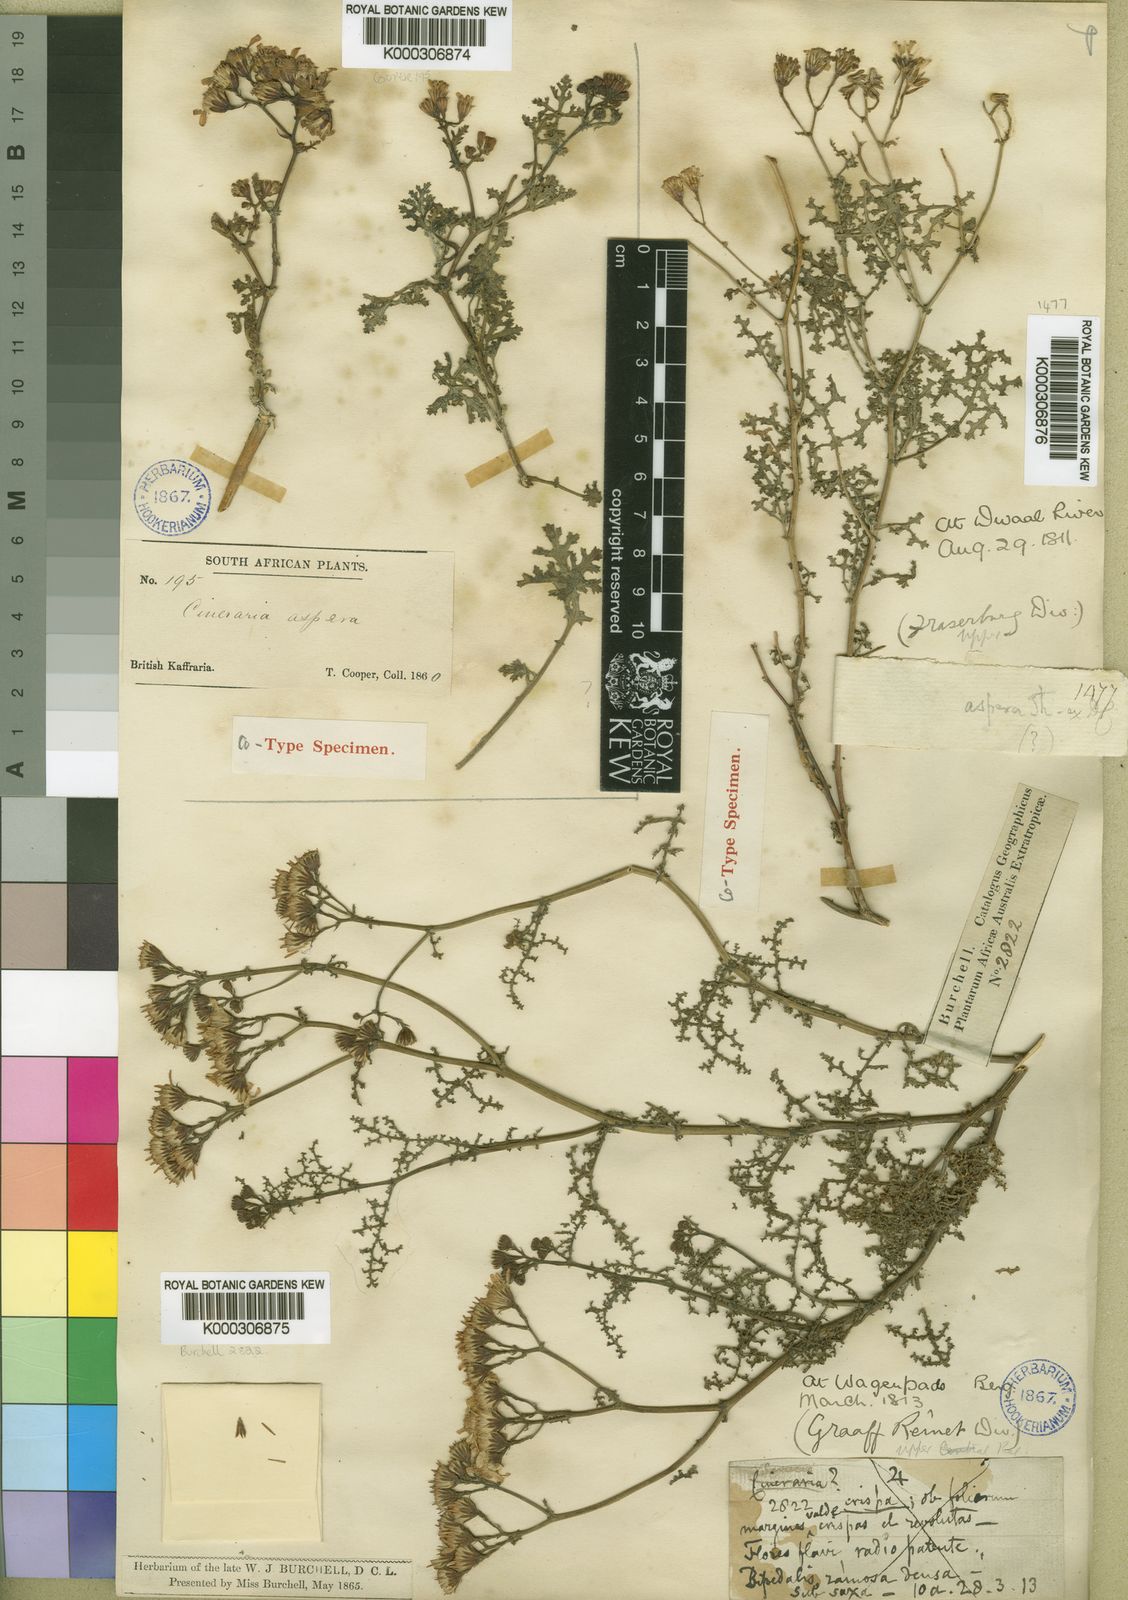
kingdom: Plantae
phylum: Tracheophyta
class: Magnoliopsida
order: Asterales
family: Asteraceae
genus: Cineraria
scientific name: Cineraria aspera
